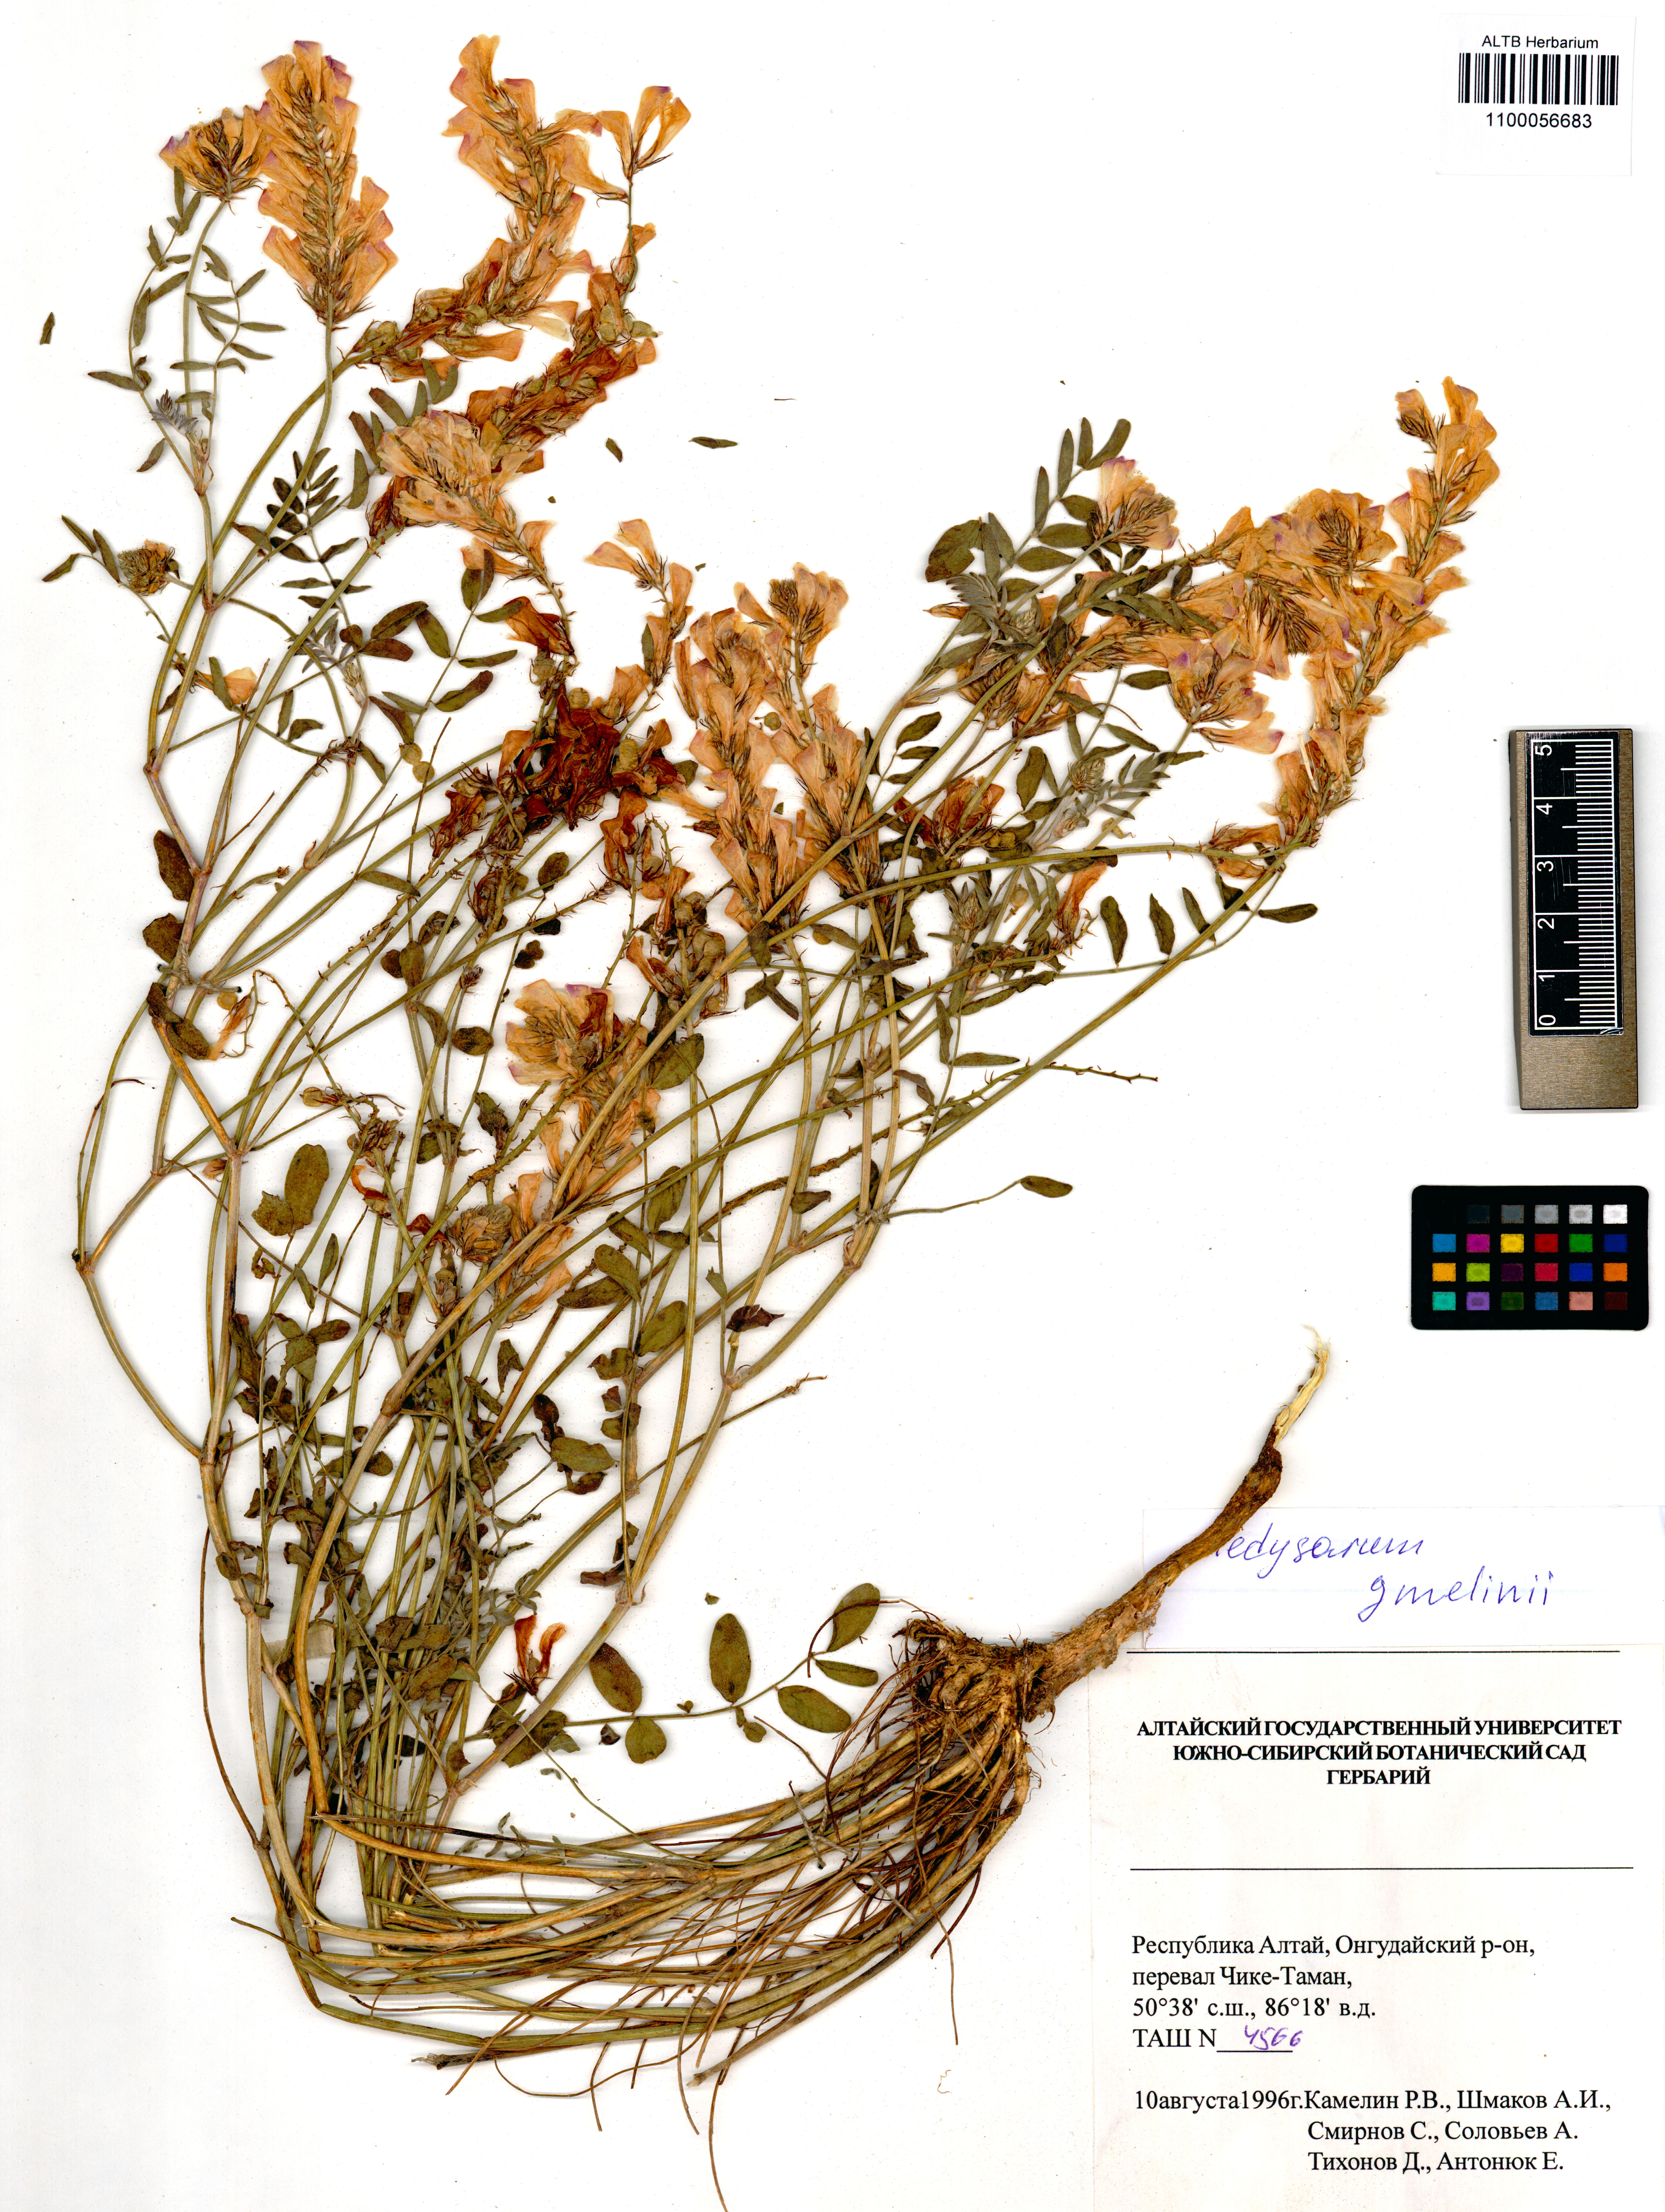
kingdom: Plantae
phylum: Tracheophyta
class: Magnoliopsida
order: Fabales
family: Fabaceae
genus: Hedysarum
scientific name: Hedysarum gmelinii
